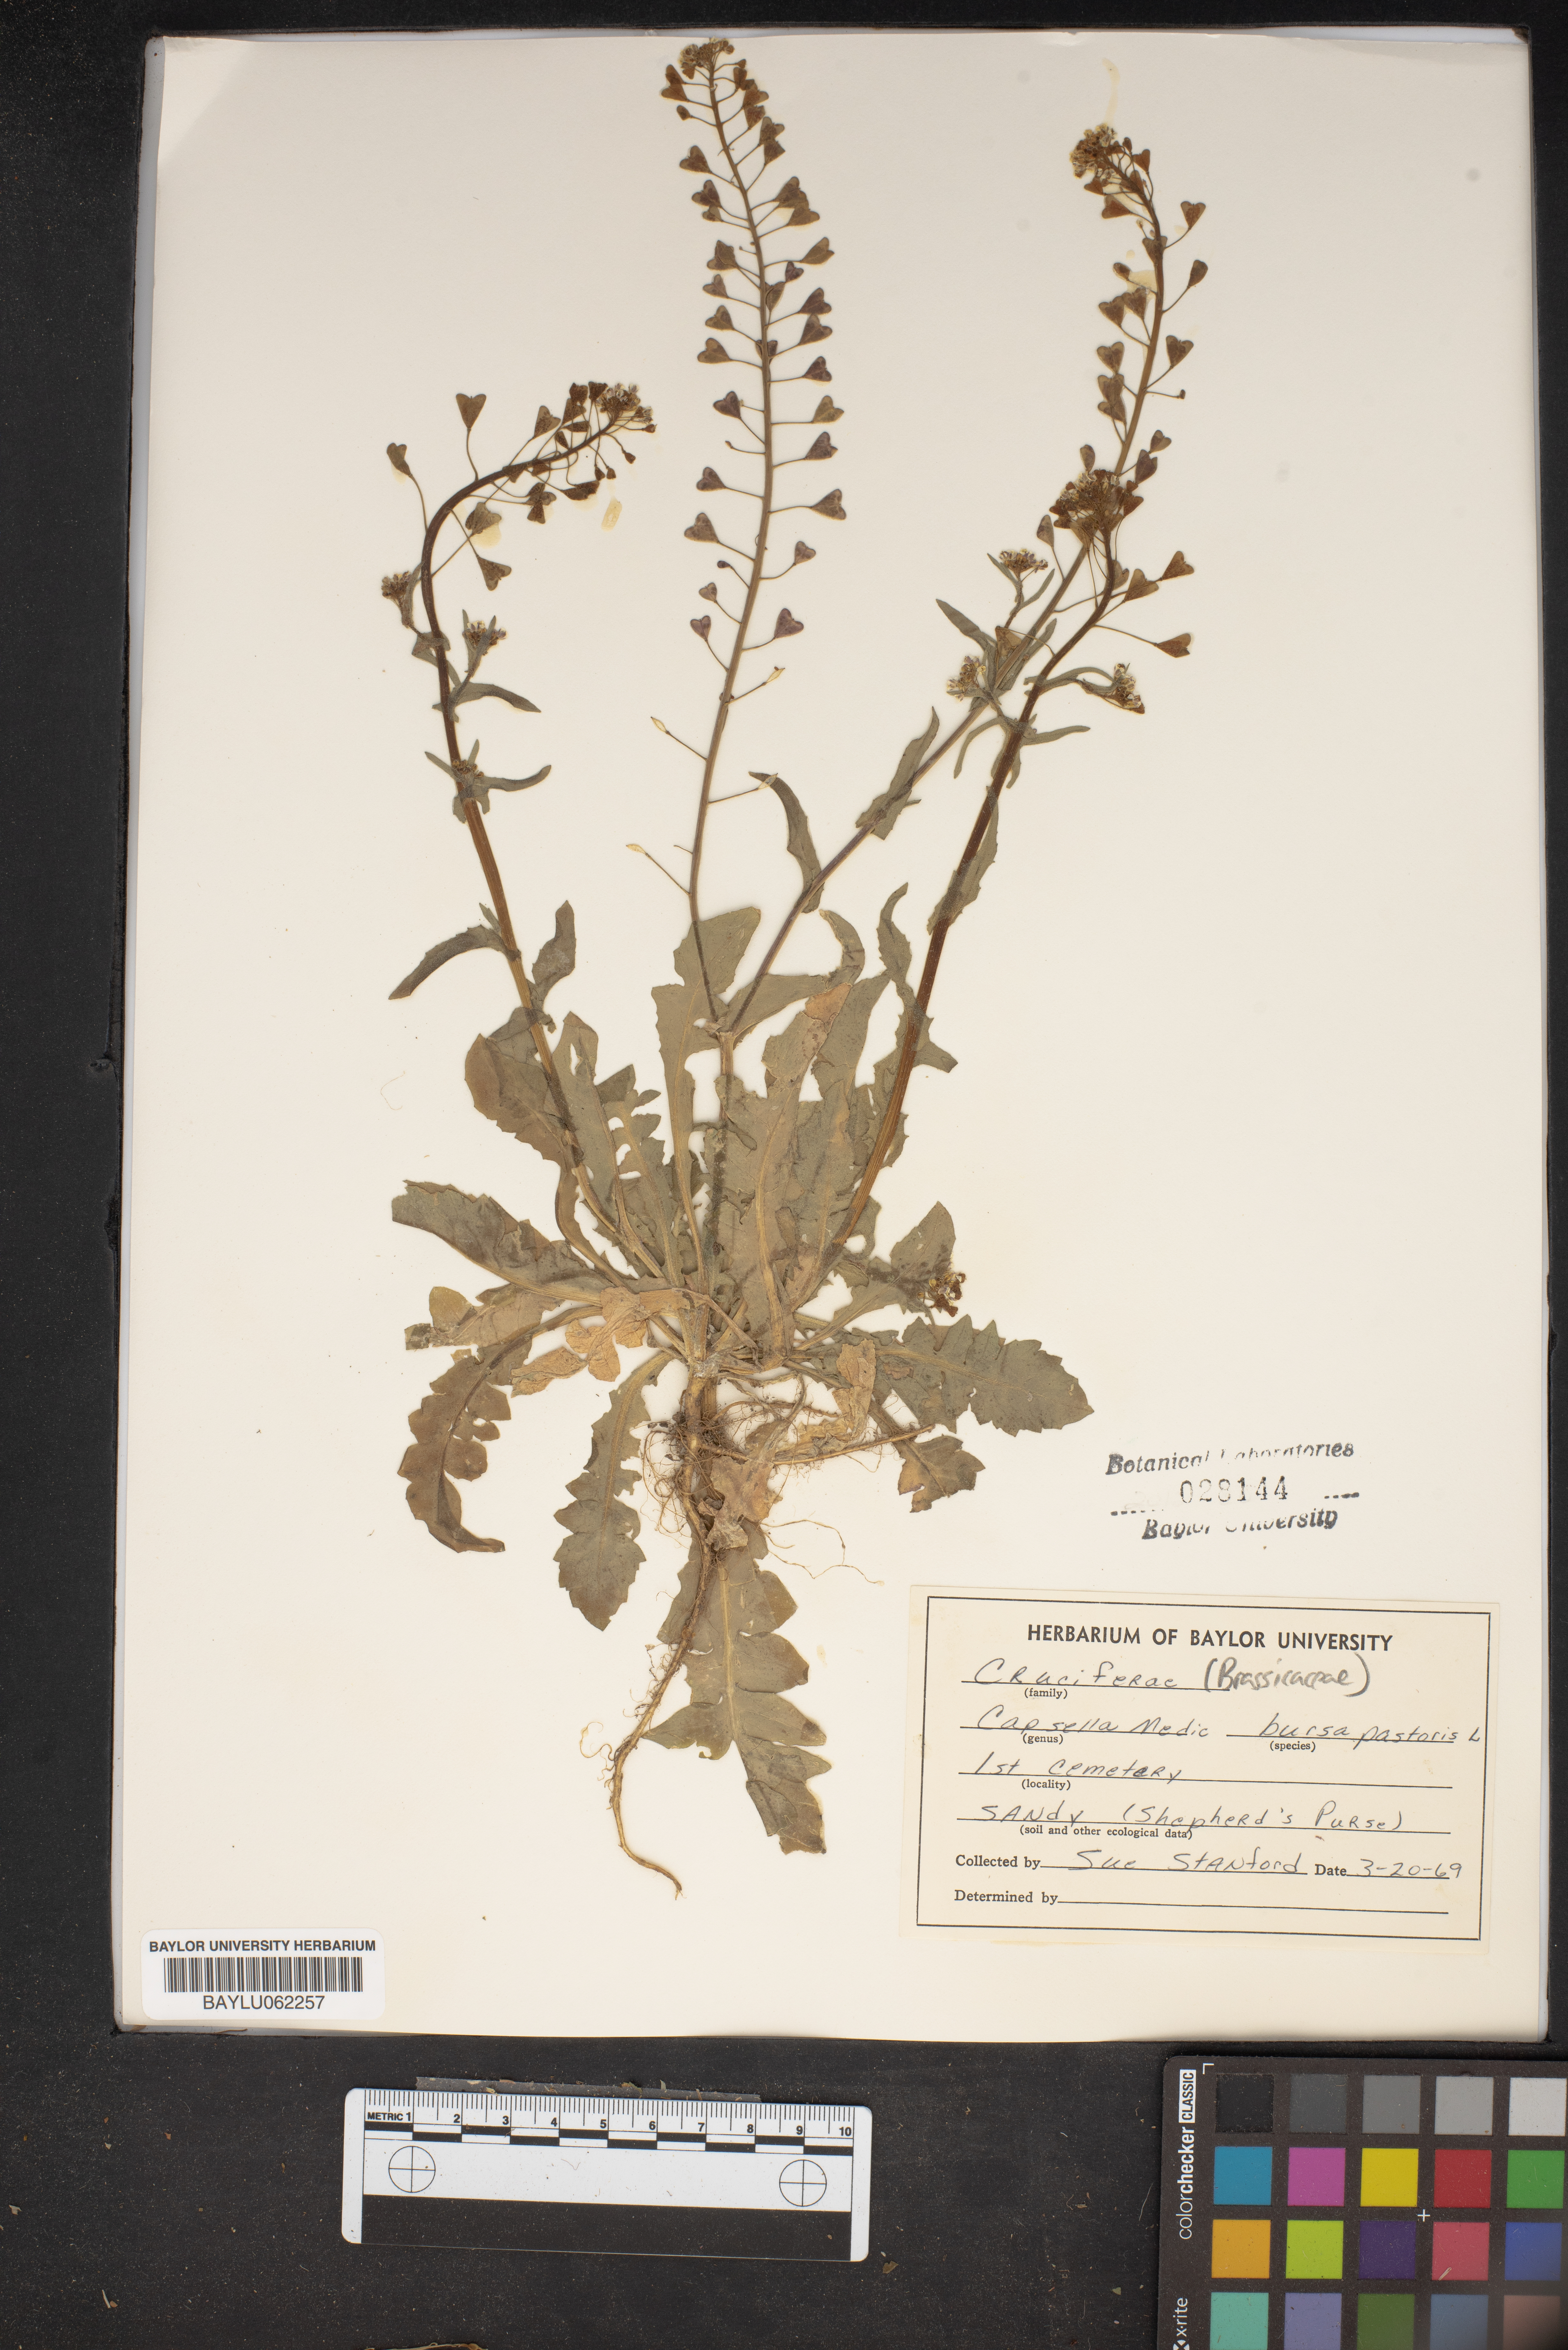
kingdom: Plantae
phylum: Tracheophyta
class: Magnoliopsida
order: Brassicales
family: Brassicaceae
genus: Capsella
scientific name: Capsella bursa-pastoris
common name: Shepherd's purse
